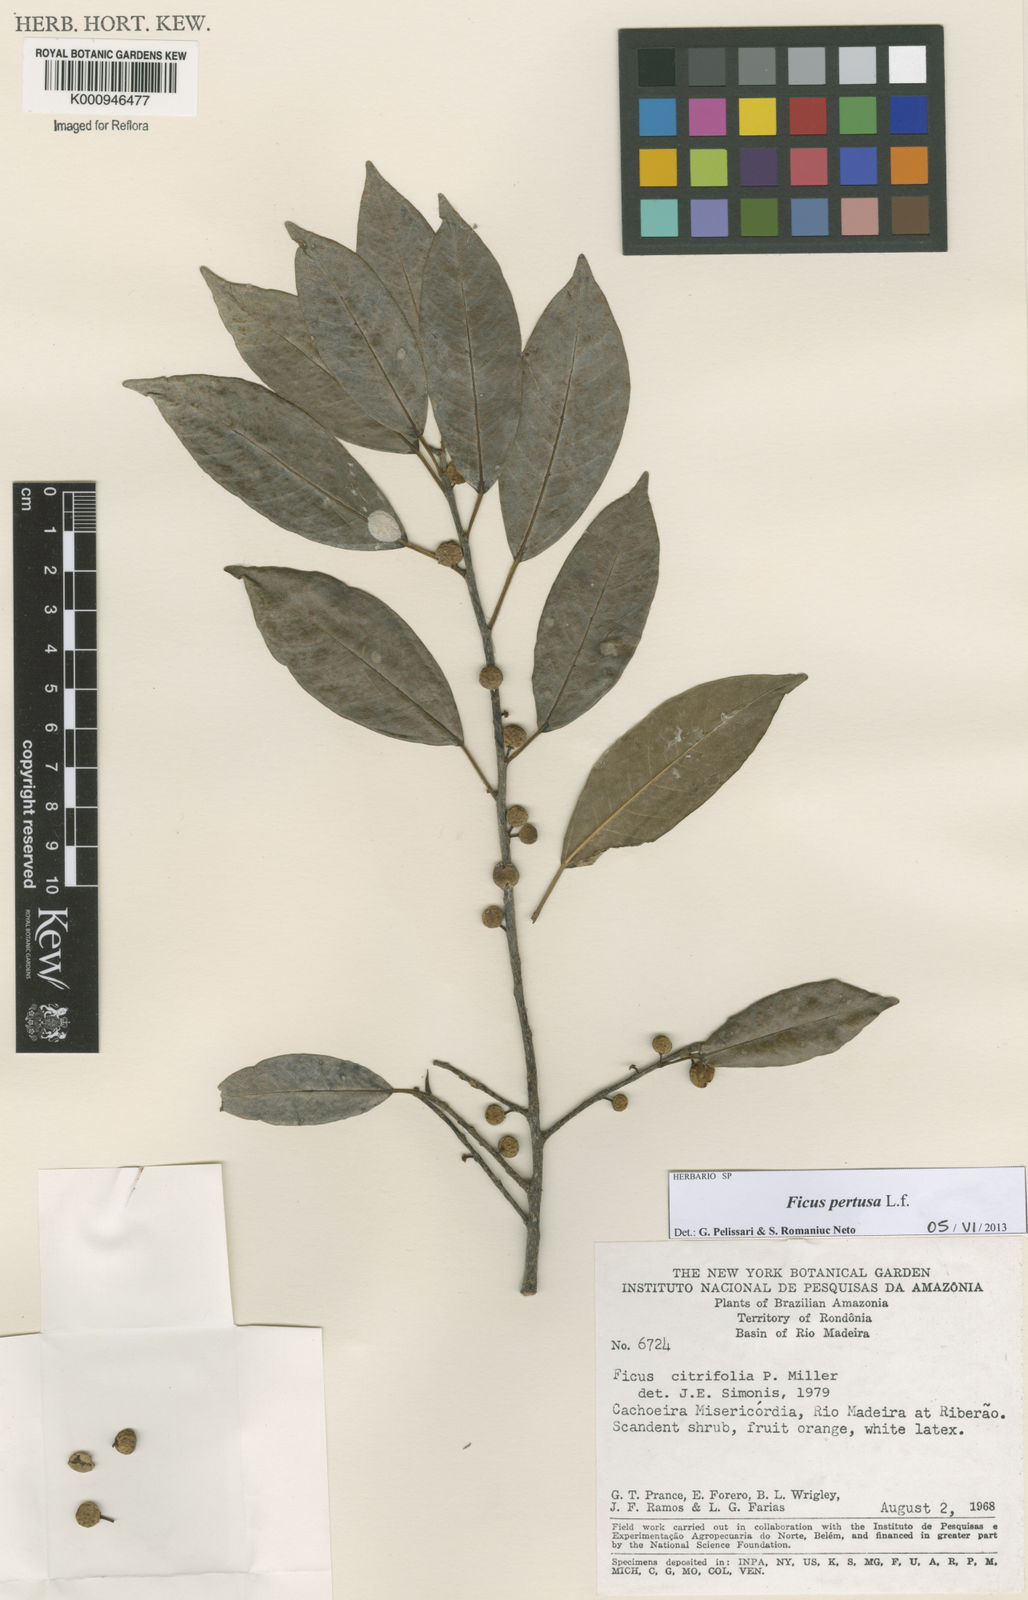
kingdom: Plantae
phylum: Tracheophyta
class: Magnoliopsida
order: Rosales
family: Moraceae
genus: Ficus
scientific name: Ficus pertusa
